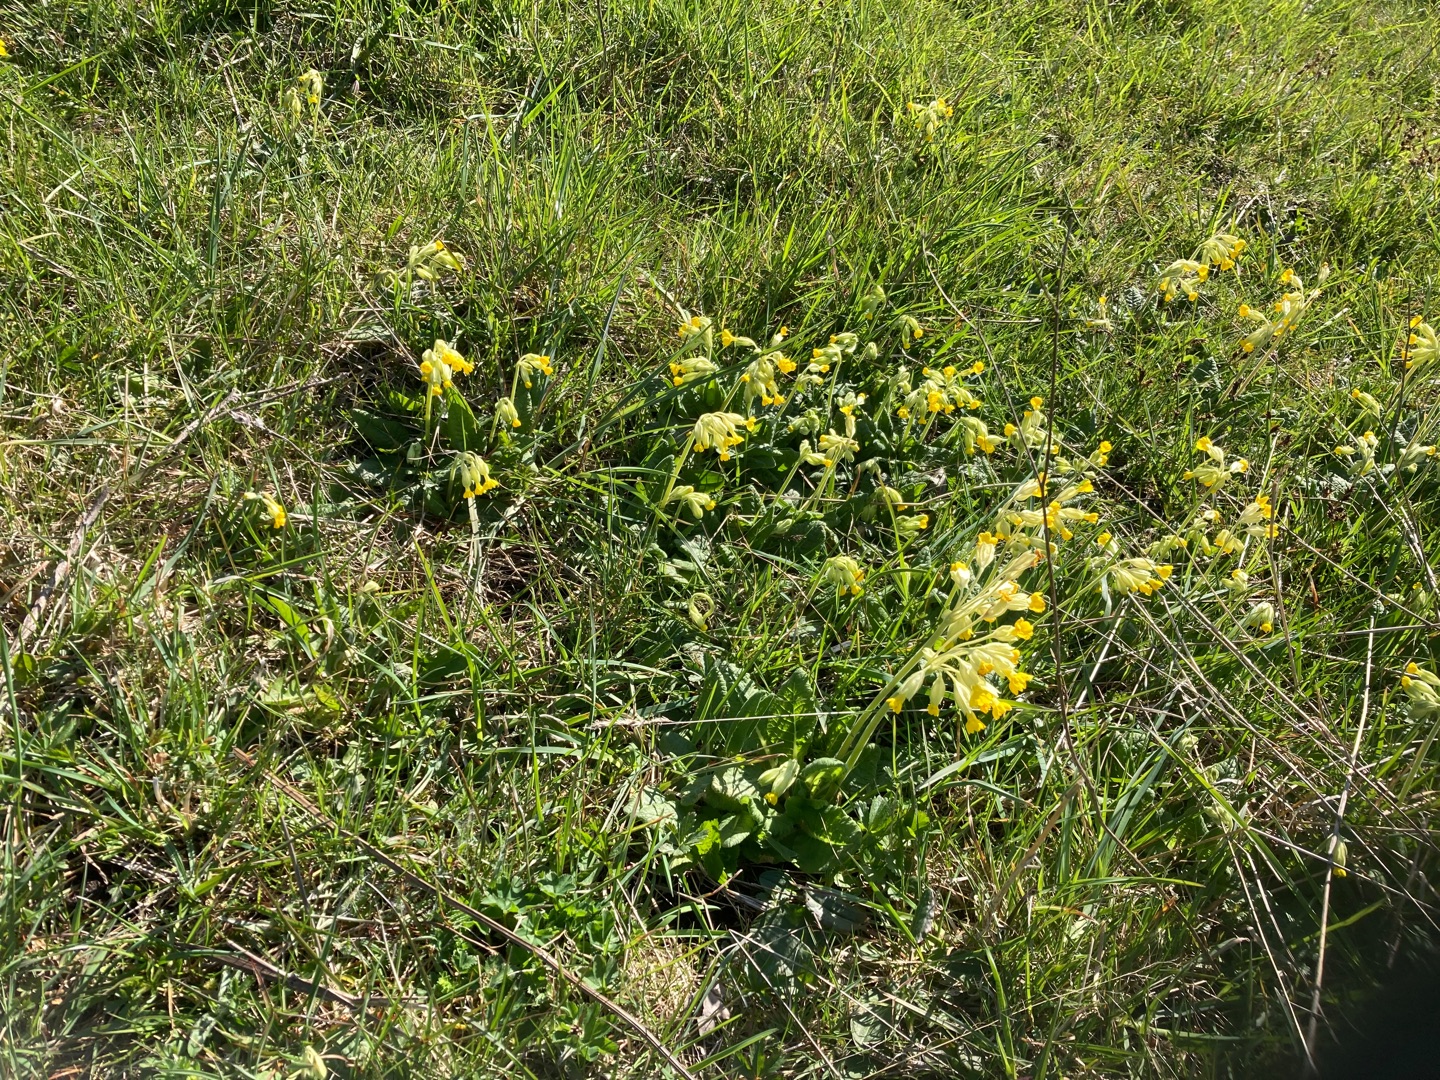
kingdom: Plantae
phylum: Tracheophyta
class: Magnoliopsida
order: Ericales
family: Primulaceae
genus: Primula
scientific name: Primula veris
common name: Hulkravet kodriver
